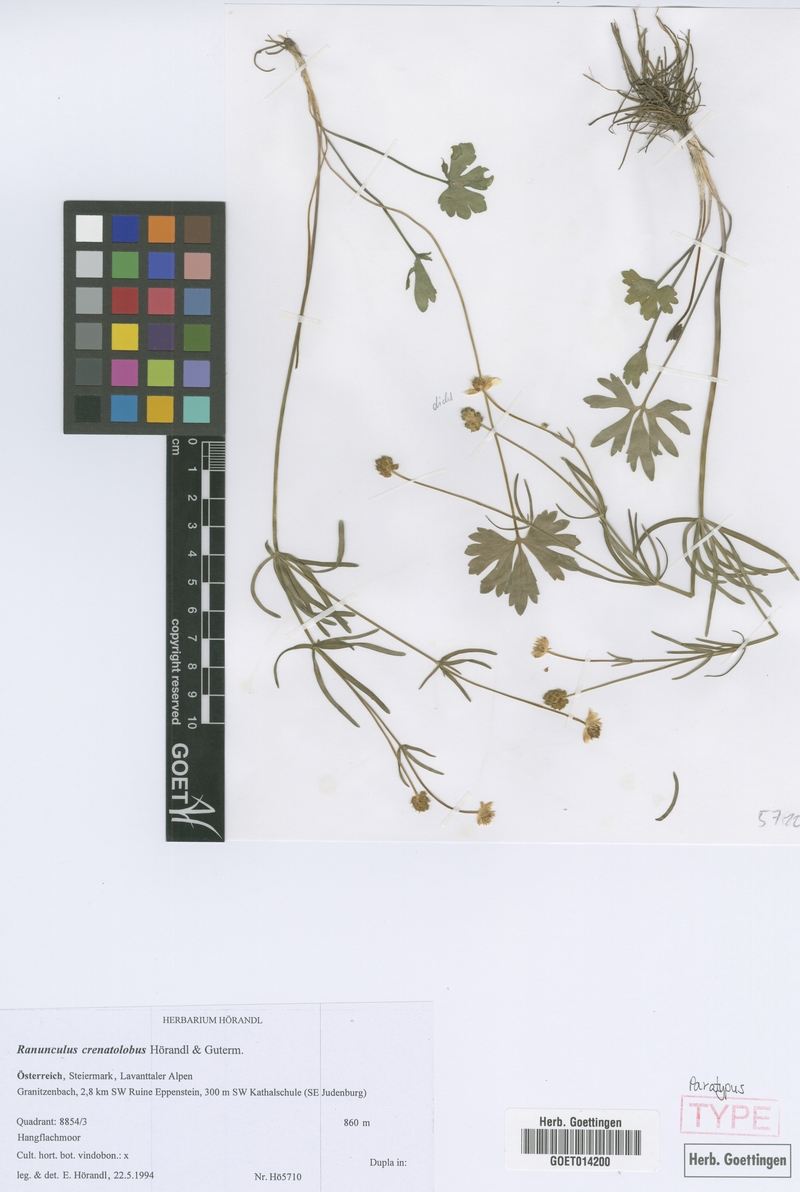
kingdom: Plantae
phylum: Tracheophyta
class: Magnoliopsida
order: Ranunculales
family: Ranunculaceae
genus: Ranunculus
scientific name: Ranunculus crenatolobus
